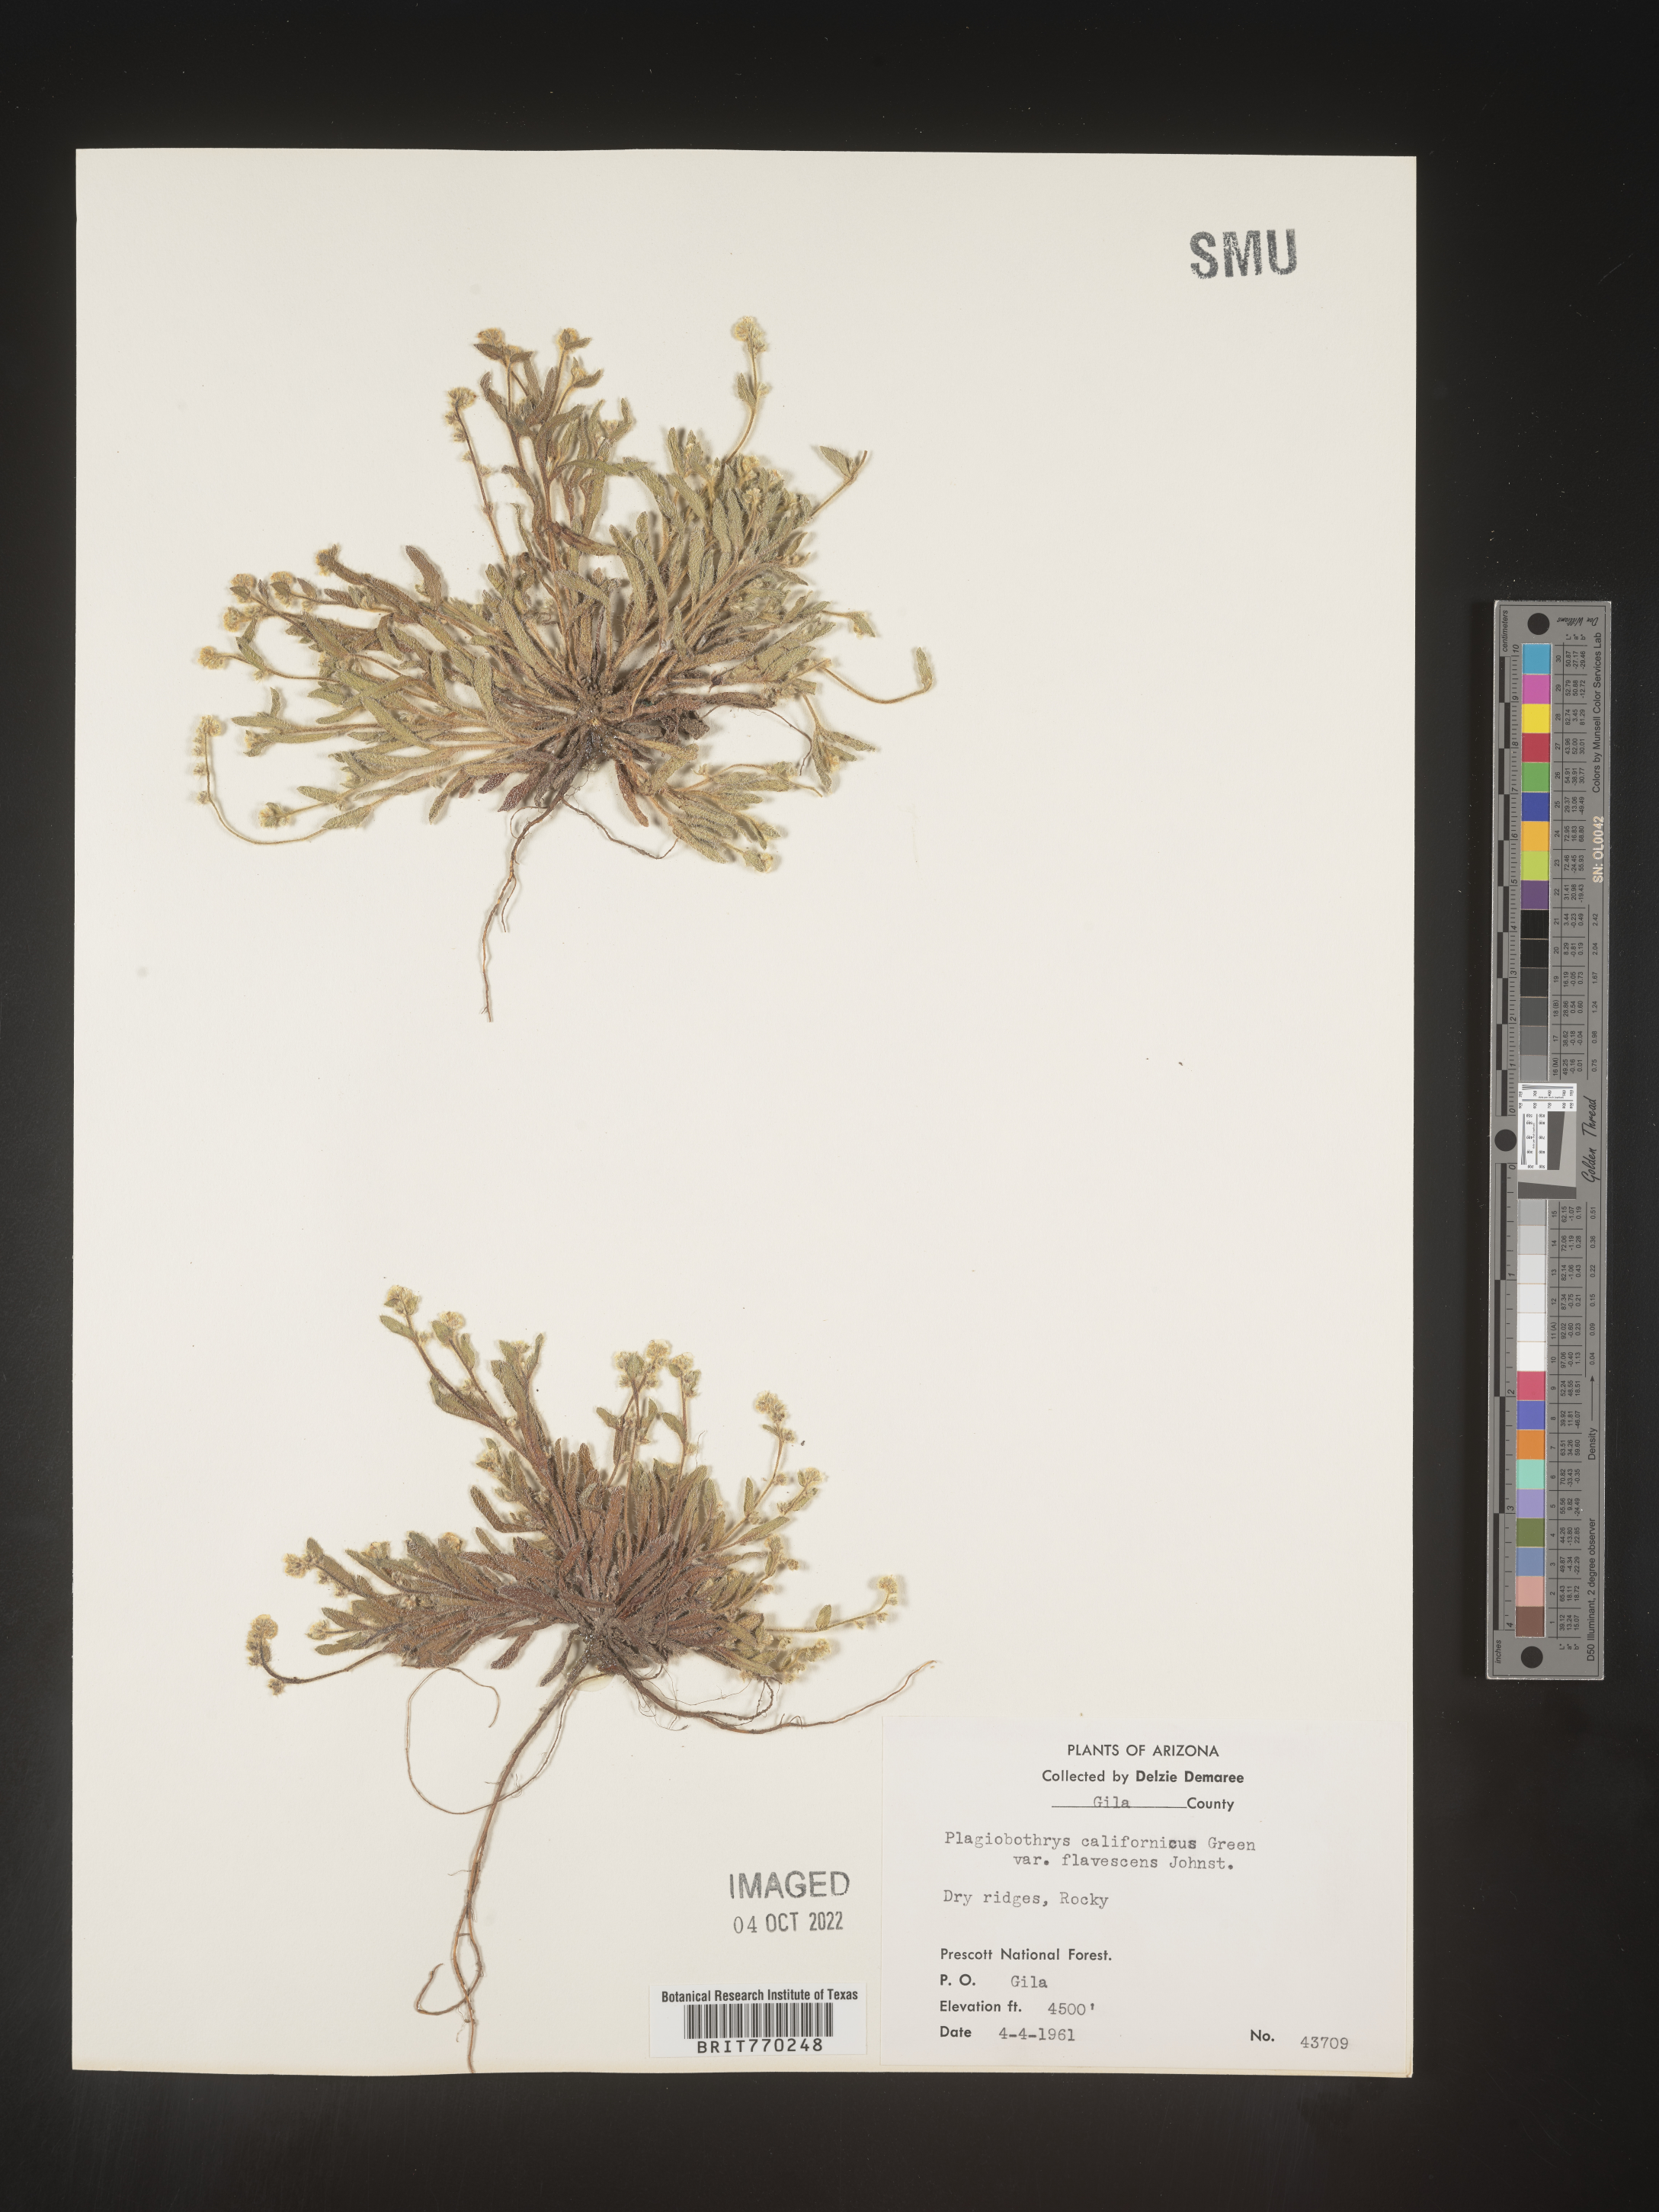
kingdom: Plantae
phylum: Tracheophyta
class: Magnoliopsida
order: Boraginales
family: Boraginaceae
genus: Plagiobothrys
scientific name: Plagiobothrys
